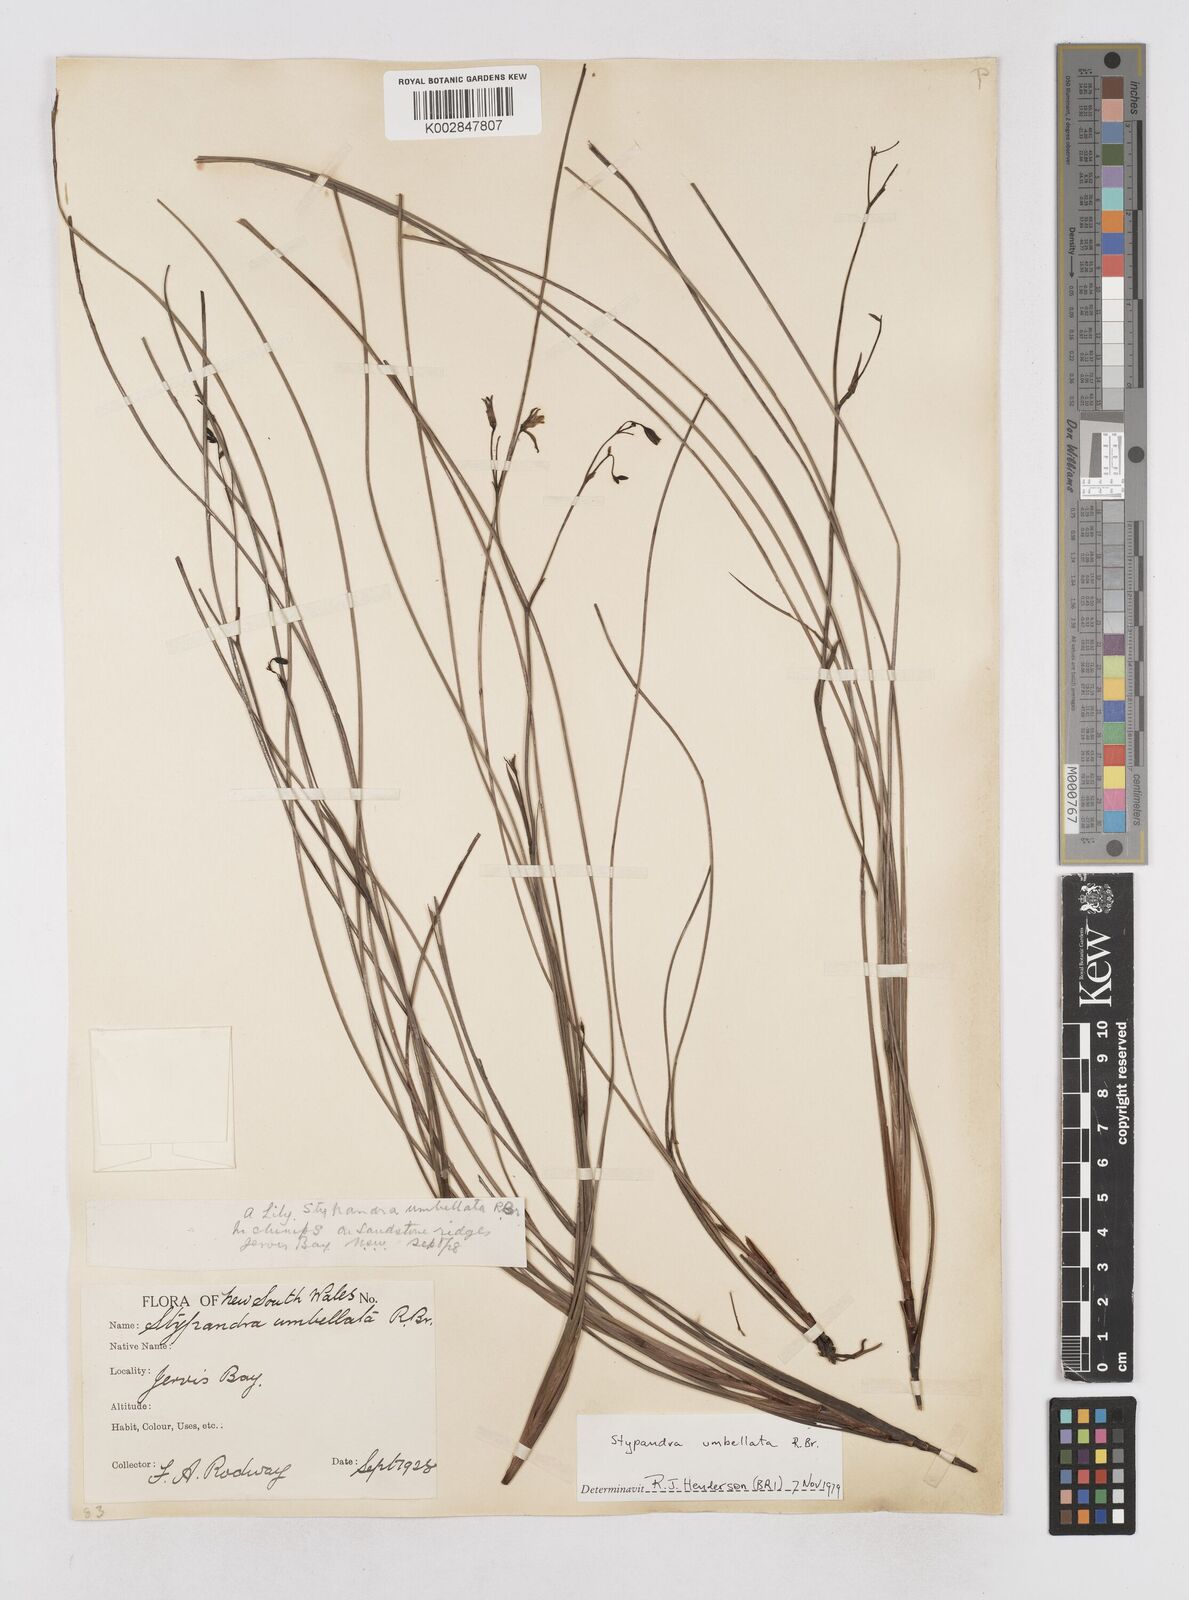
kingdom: Plantae
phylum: Tracheophyta
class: Liliopsida
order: Asparagales
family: Asphodelaceae
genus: Thelionema
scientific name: Thelionema umbellatum
